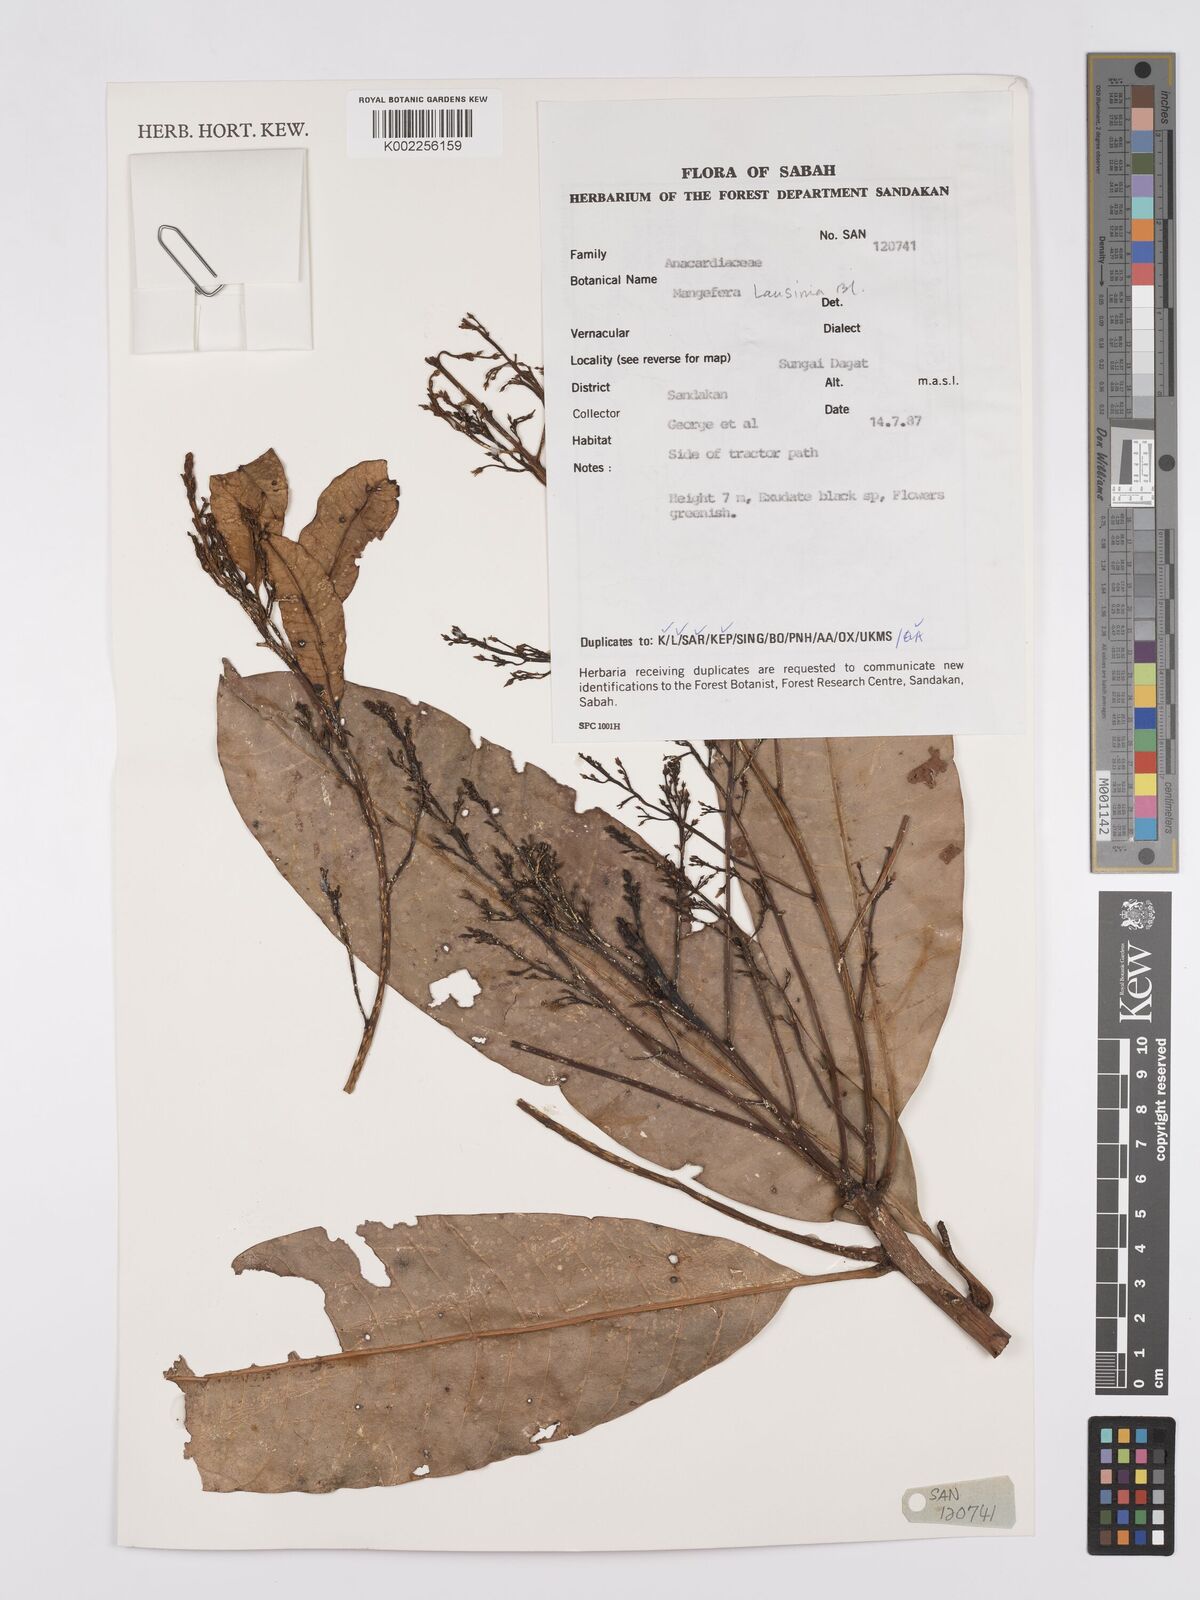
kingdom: Plantae
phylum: Tracheophyta
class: Magnoliopsida
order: Sapindales
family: Anacardiaceae
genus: Mangifera
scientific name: Mangifera laurina
